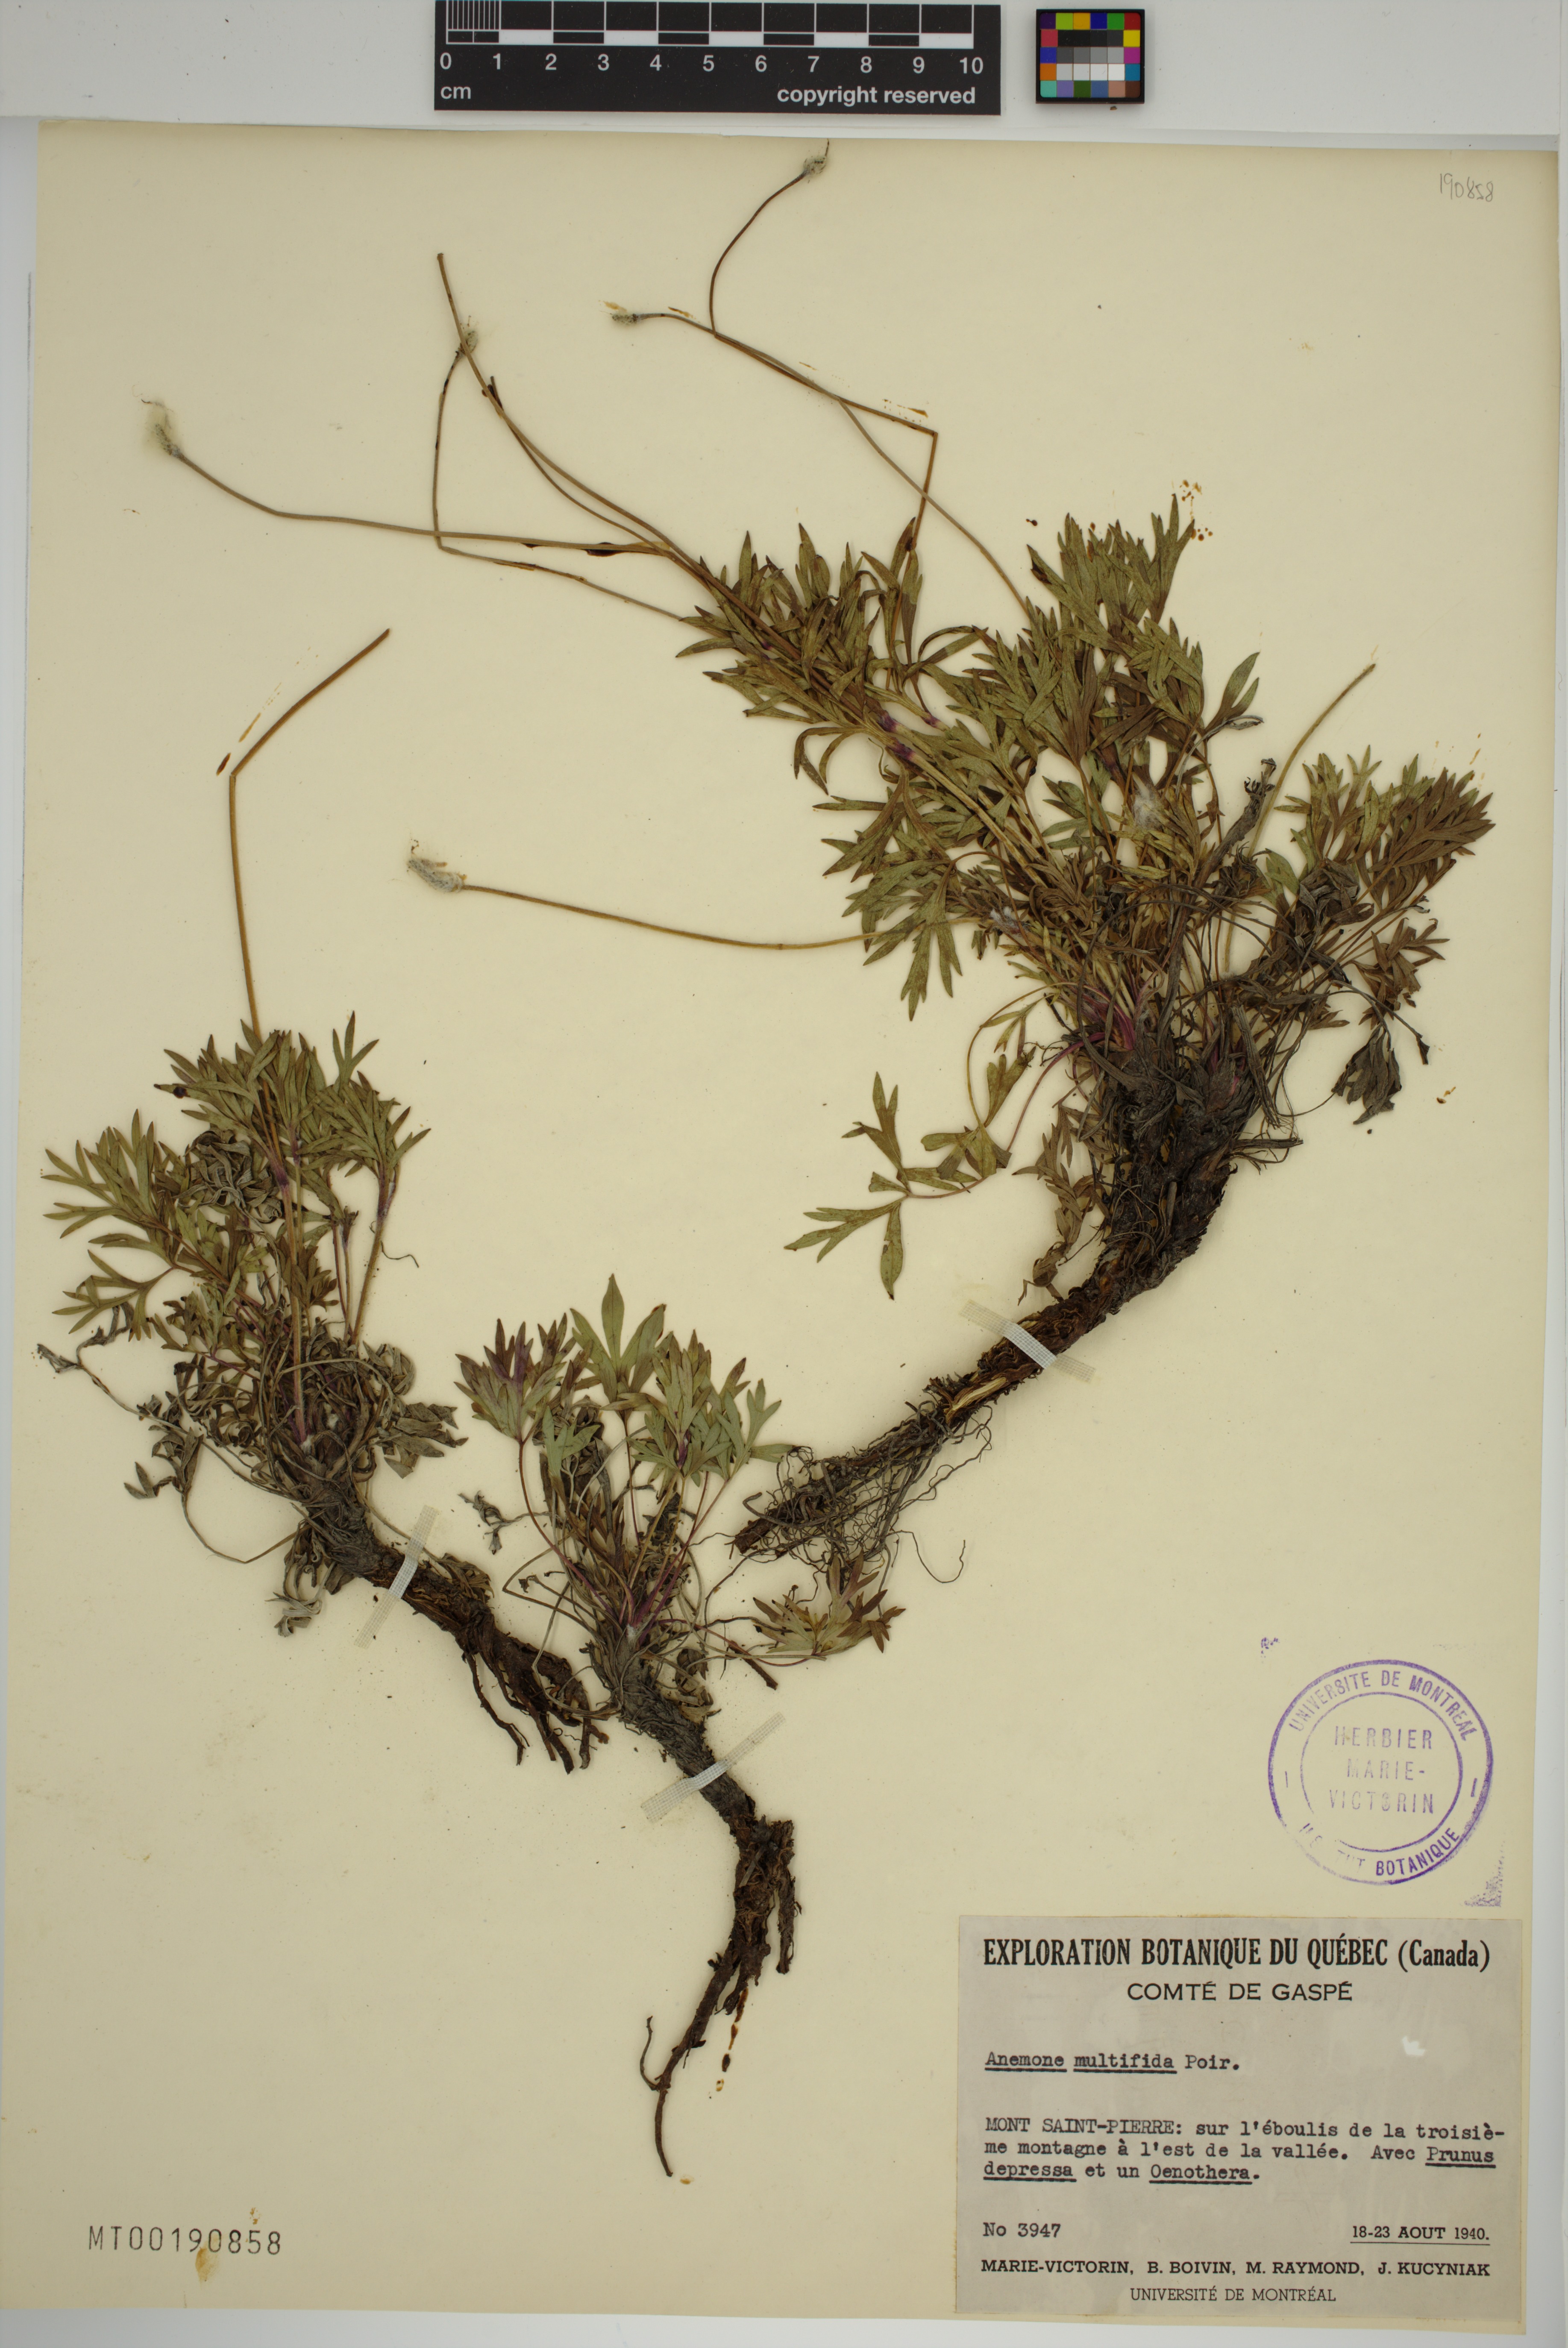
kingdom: Plantae
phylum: Tracheophyta
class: Magnoliopsida
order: Ranunculales
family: Ranunculaceae
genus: Anemone
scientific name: Anemone multifida
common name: Bird's-foot anemone
